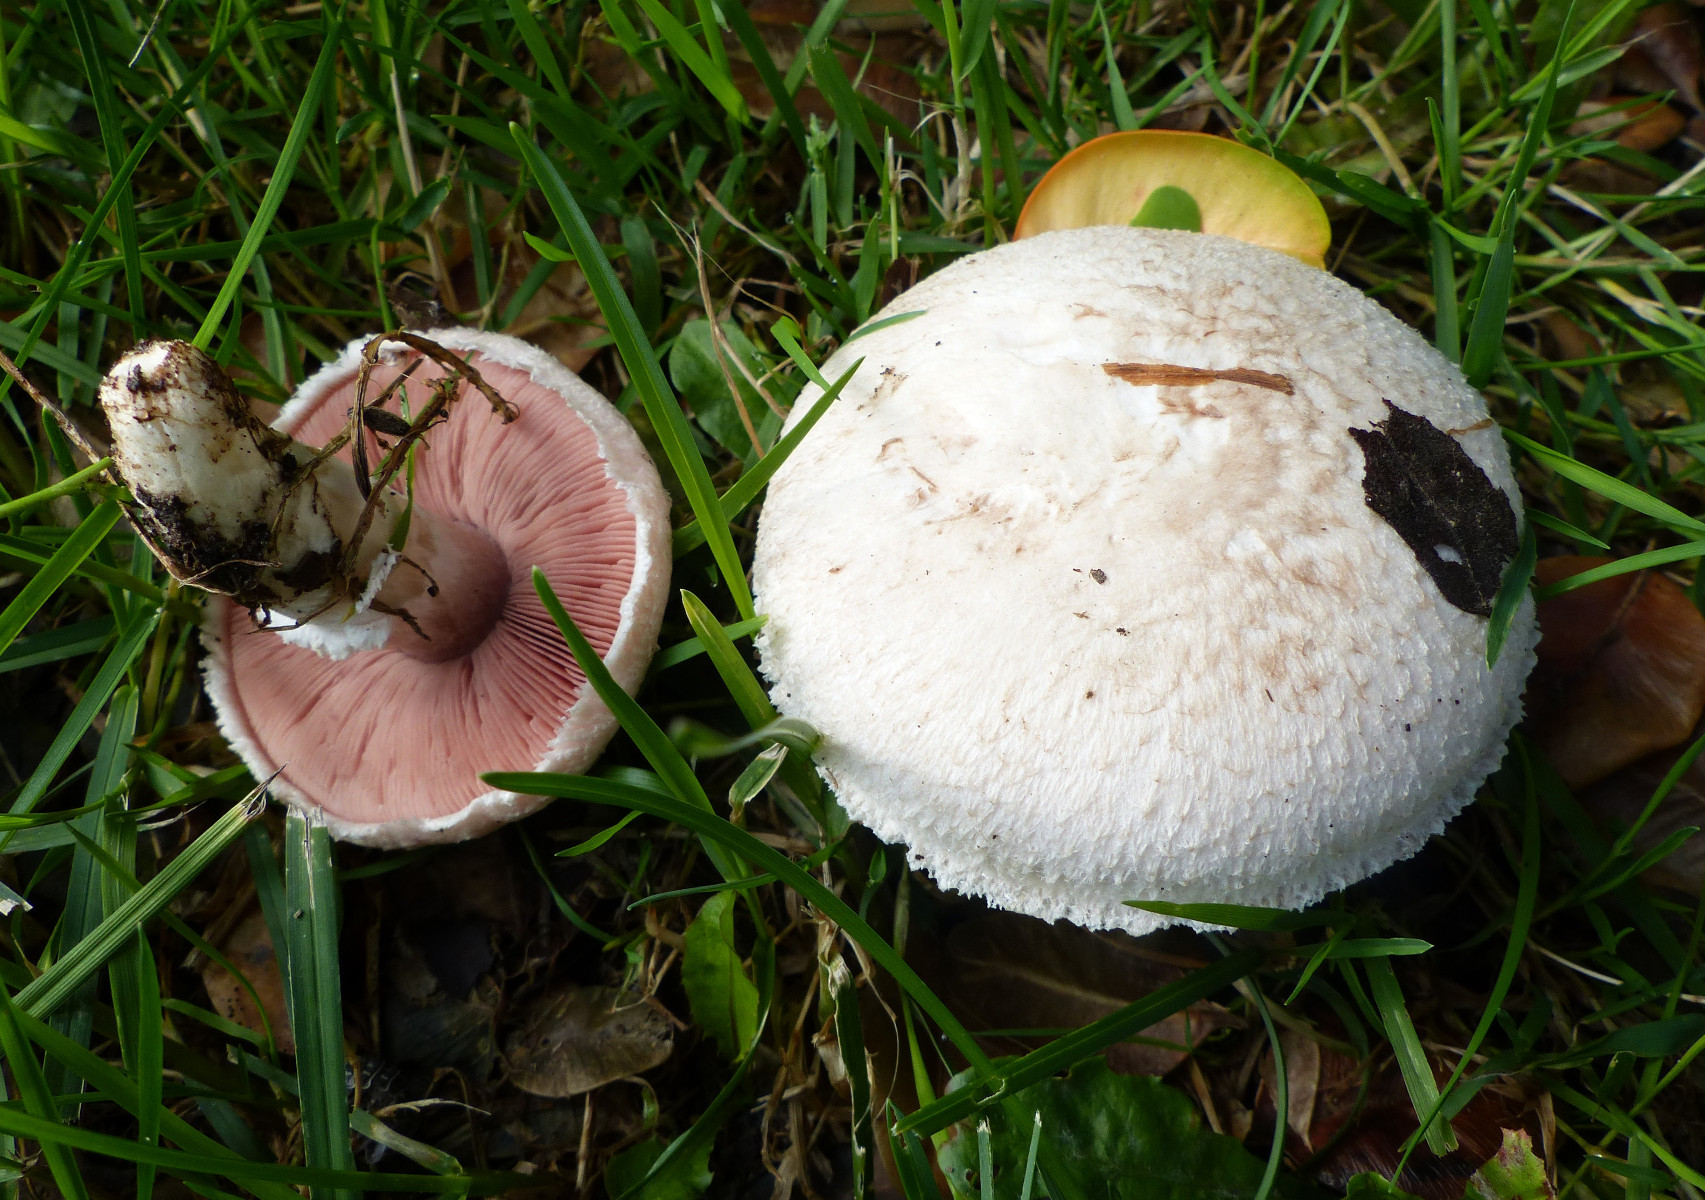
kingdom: Fungi
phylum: Basidiomycota
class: Agaricomycetes
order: Agaricales
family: Agaricaceae
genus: Agaricus
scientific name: Agaricus campestris
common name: mark-champignon
